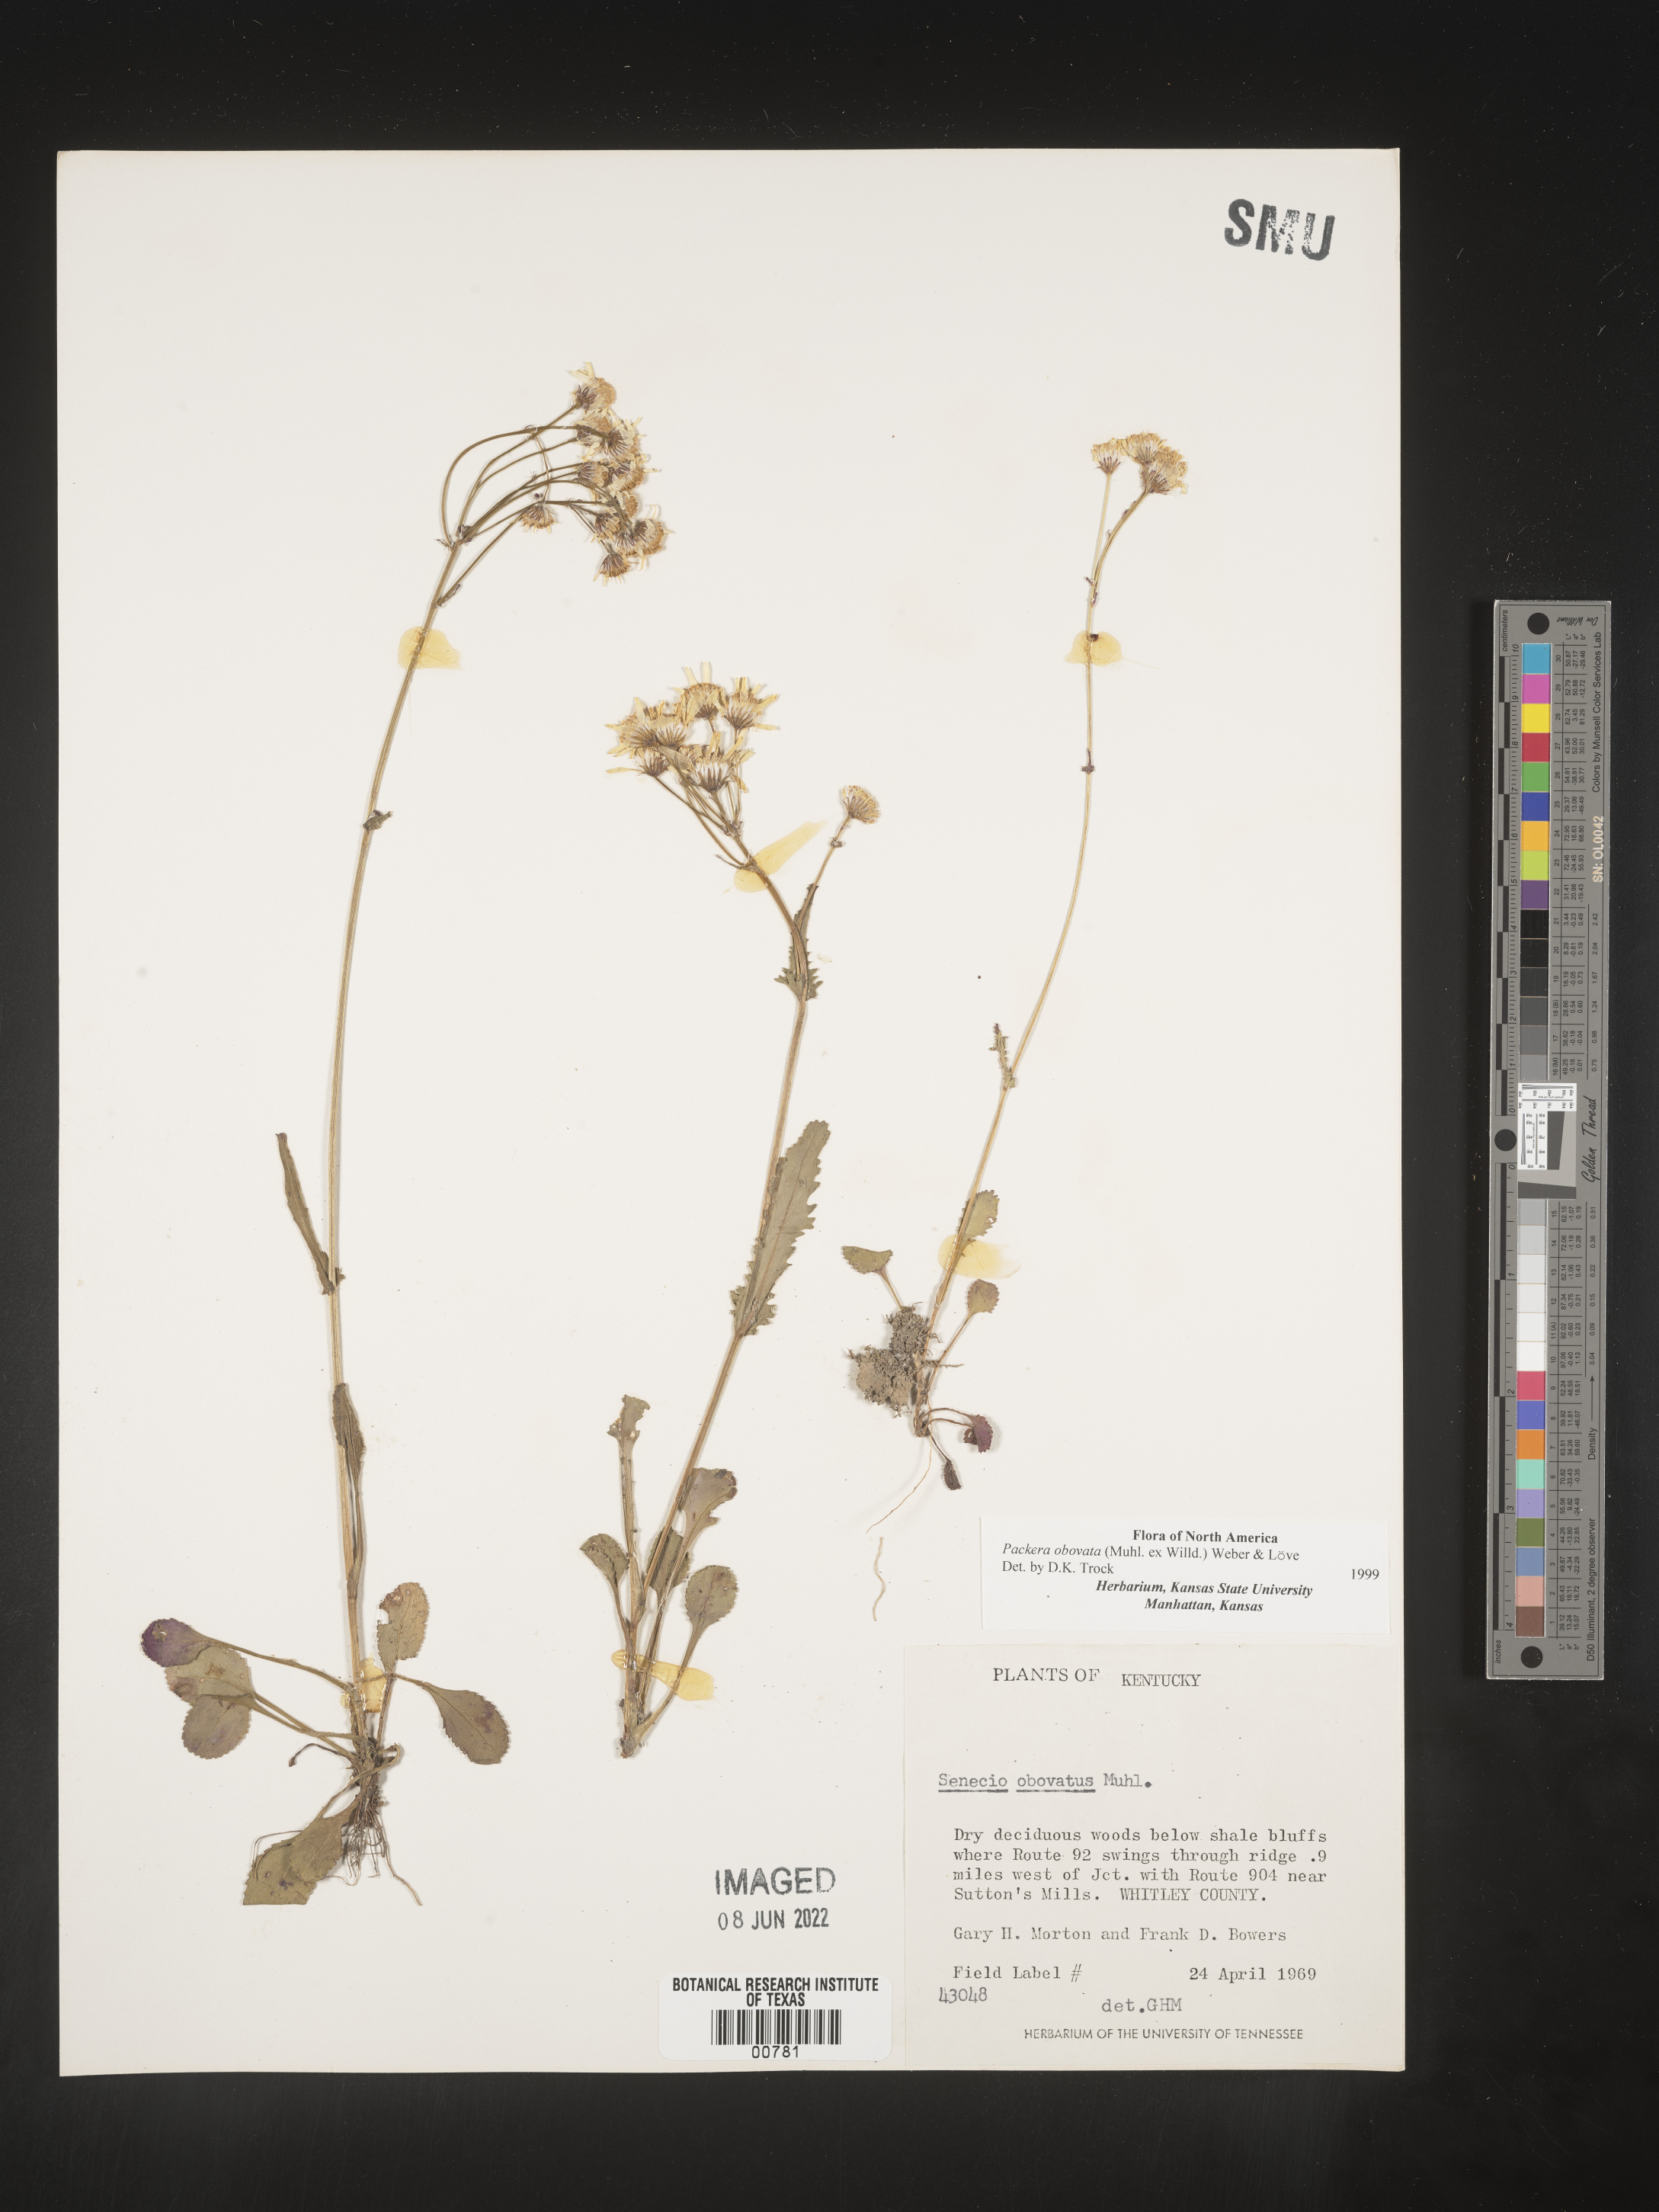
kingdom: Plantae
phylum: Tracheophyta
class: Magnoliopsida
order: Asterales
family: Asteraceae
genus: Packera
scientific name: Packera obovata
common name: Round-leaf ragwort
